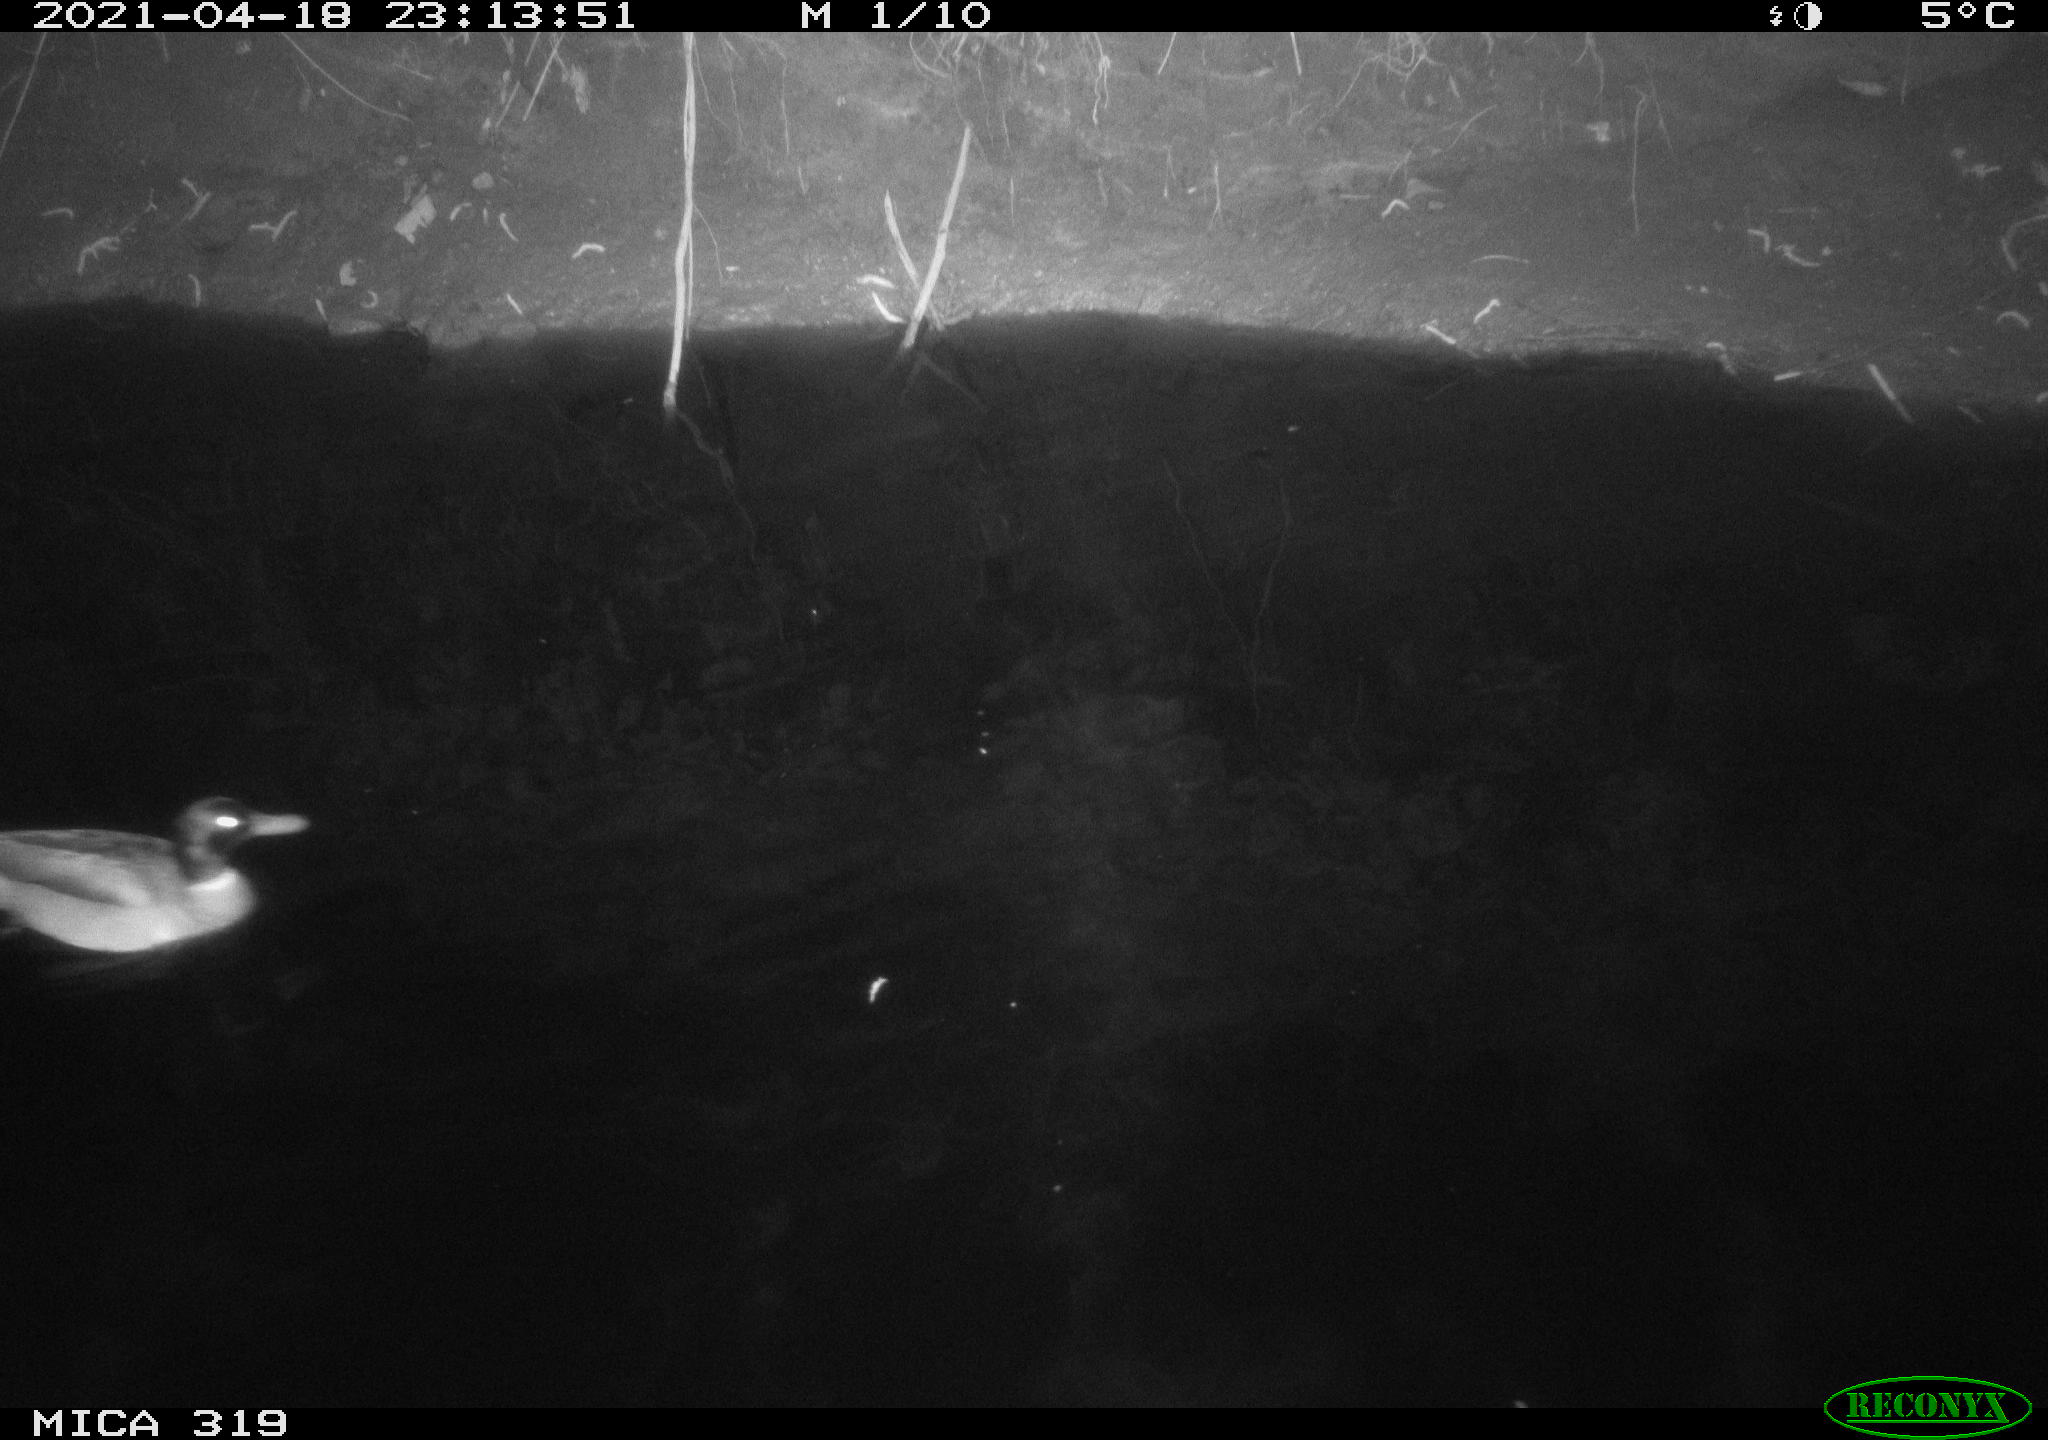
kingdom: Animalia
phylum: Chordata
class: Aves
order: Anseriformes
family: Anatidae
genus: Anas
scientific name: Anas platyrhynchos
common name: Mallard
